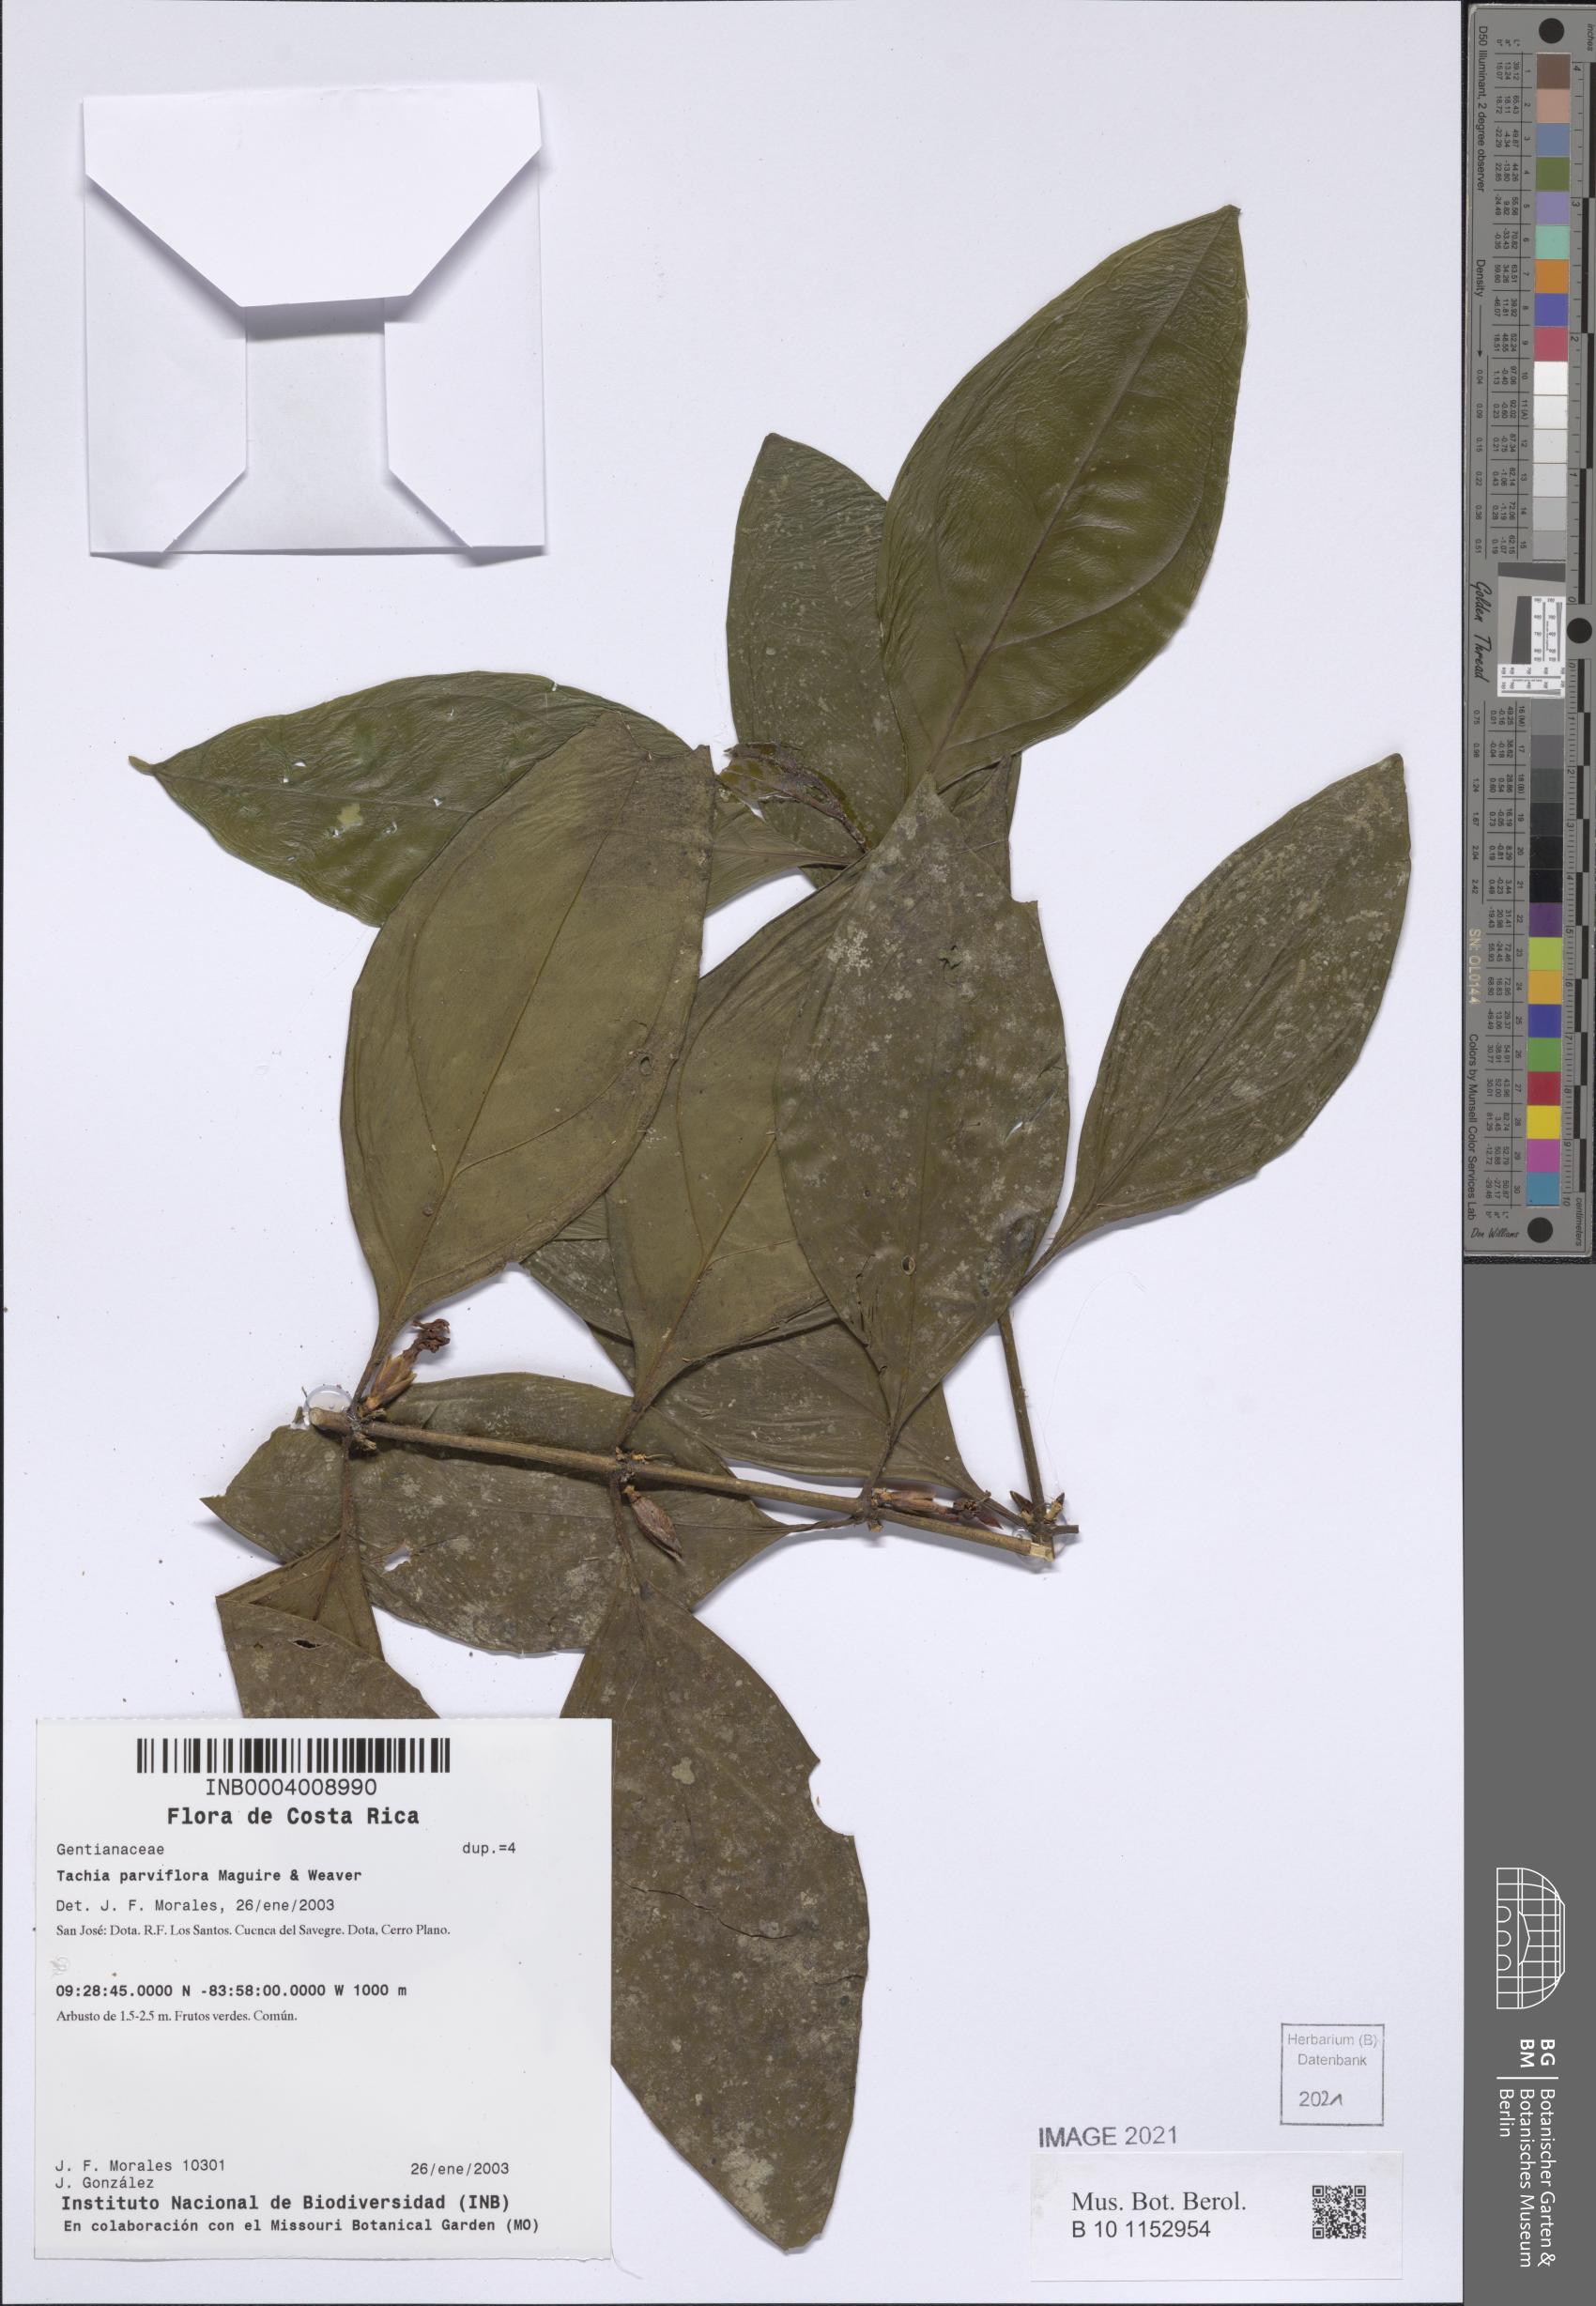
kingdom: Plantae
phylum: Tracheophyta
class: Magnoliopsida
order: Gentianales
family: Gentianaceae
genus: Tachia
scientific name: Tachia parviflora
